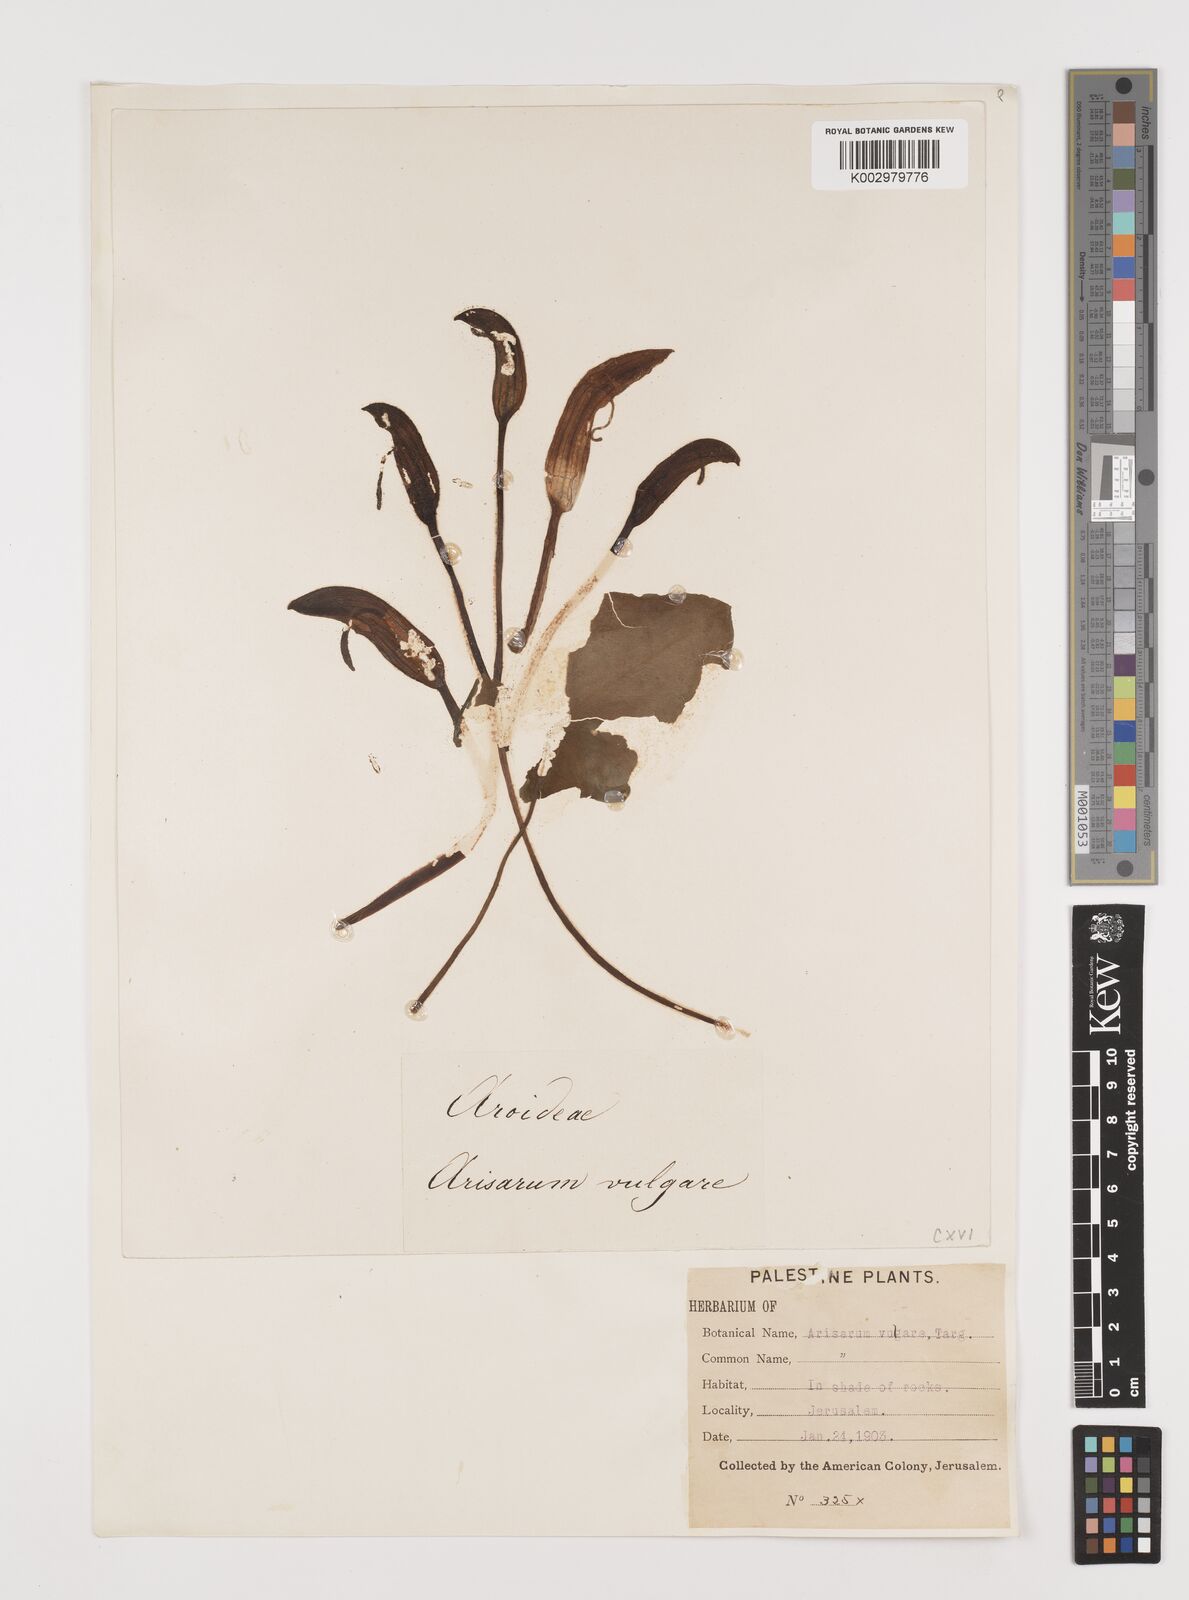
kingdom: Plantae
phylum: Tracheophyta
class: Liliopsida
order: Alismatales
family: Araceae
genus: Arisarum
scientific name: Arisarum vulgare
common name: Common arisarum
